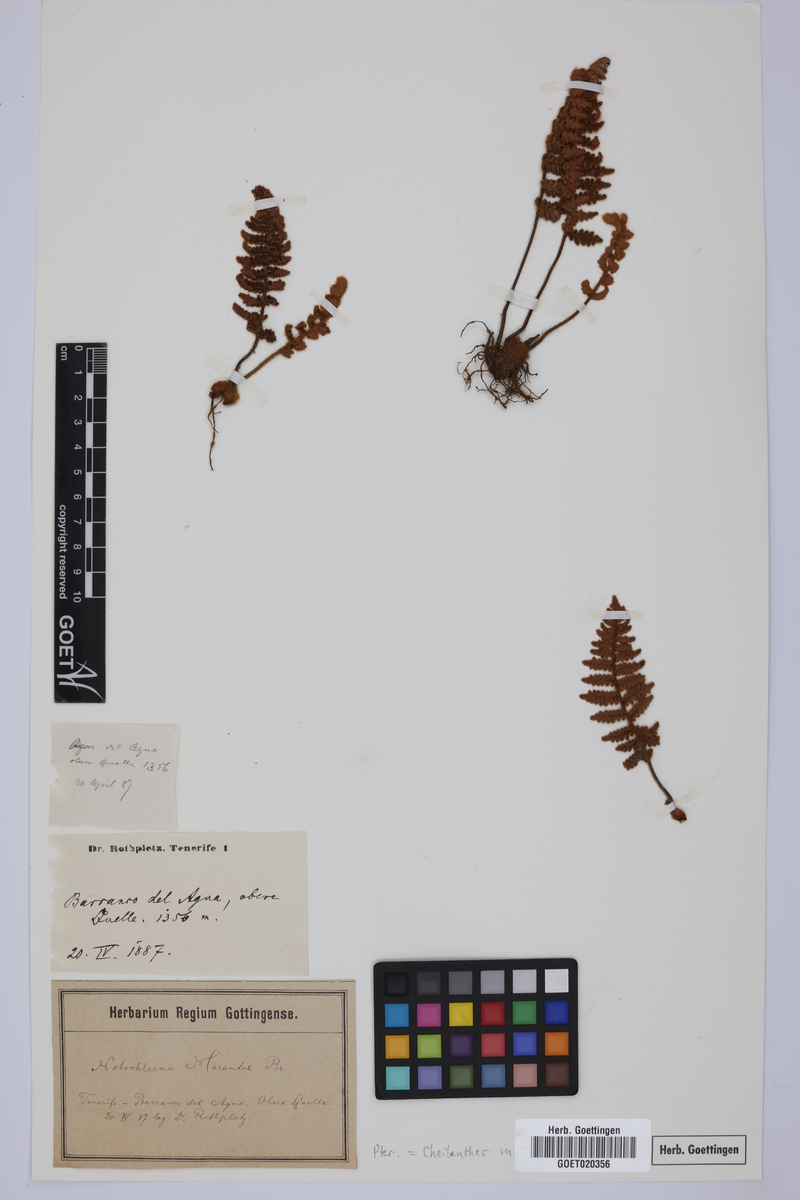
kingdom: Plantae
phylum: Tracheophyta
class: Polypodiopsida
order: Polypodiales
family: Pteridaceae
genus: Paragymnopteris
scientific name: Paragymnopteris marantae
